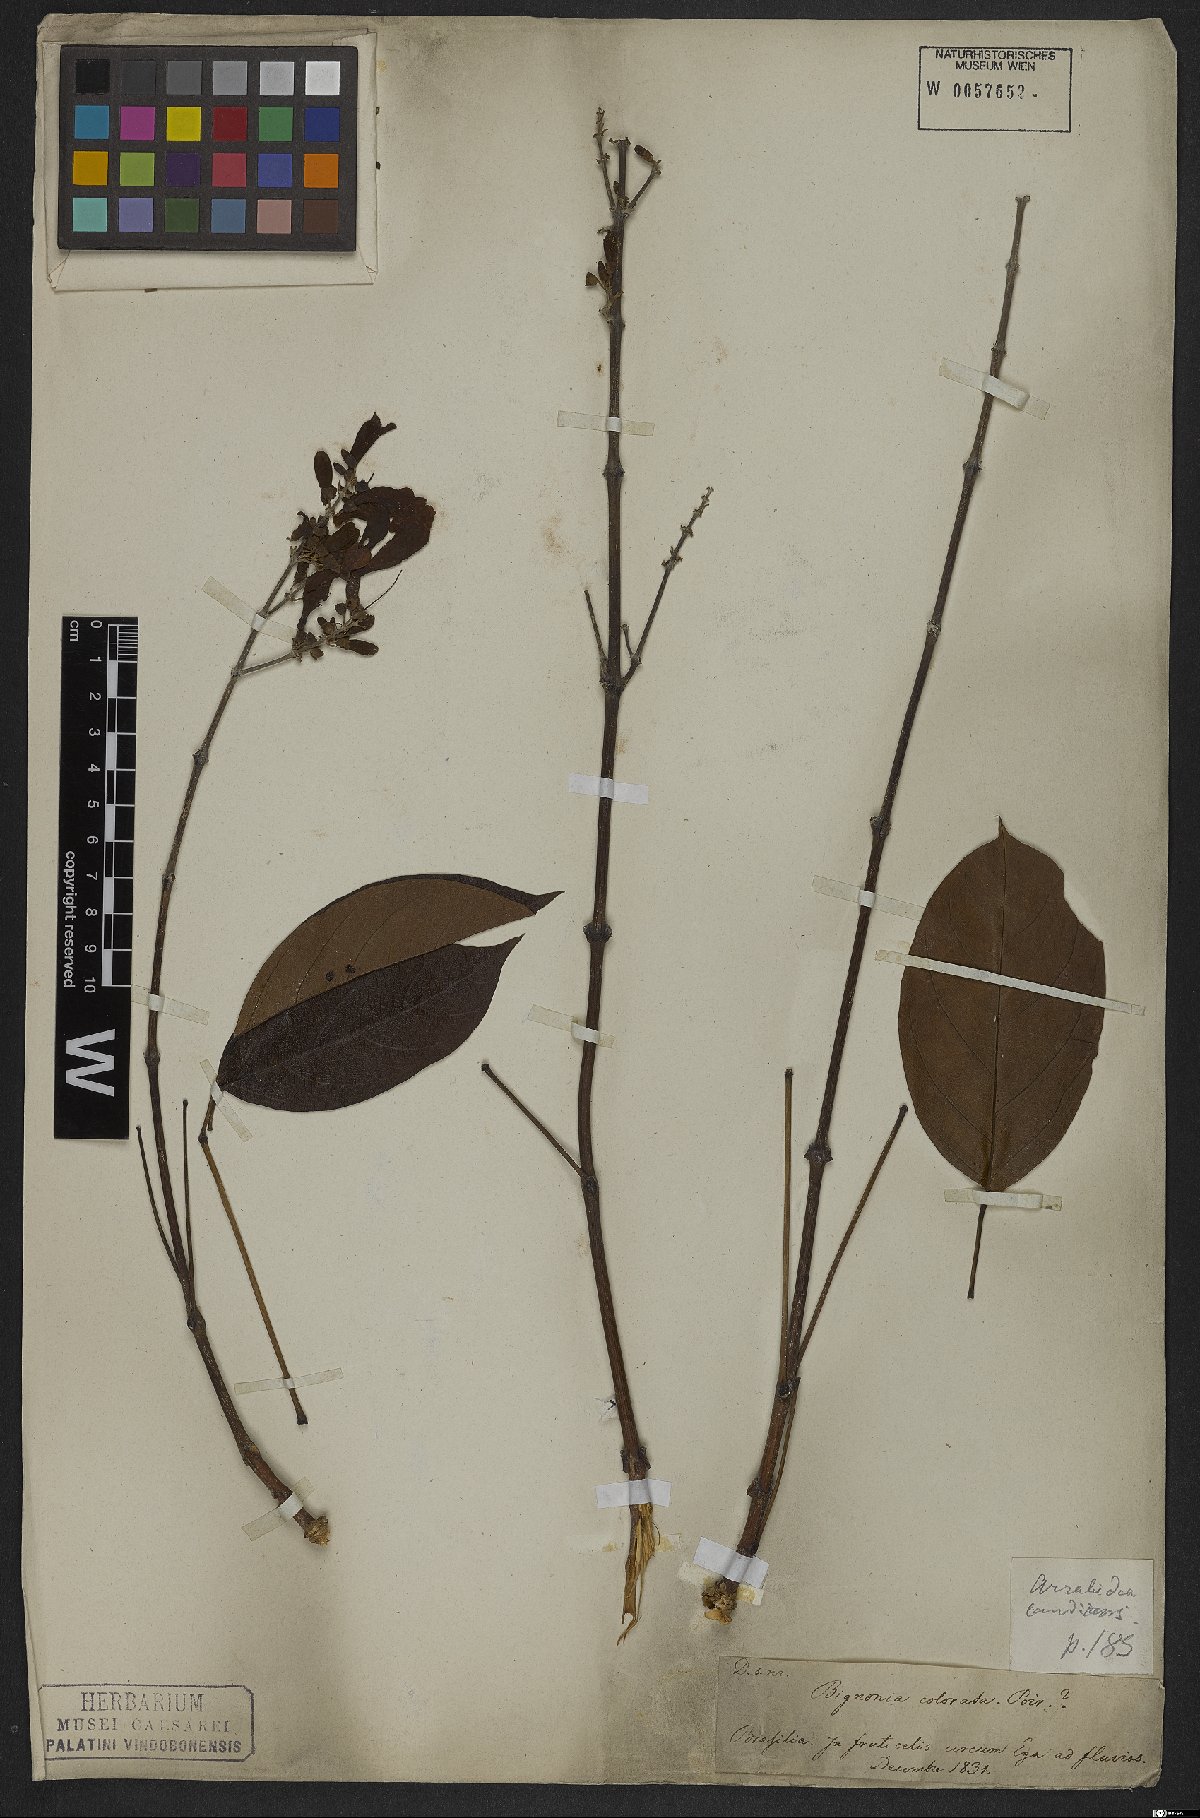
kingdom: Plantae
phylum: Tracheophyta
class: Magnoliopsida
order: Lamiales
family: Bignoniaceae
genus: Fridericia
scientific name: Fridericia candicans
